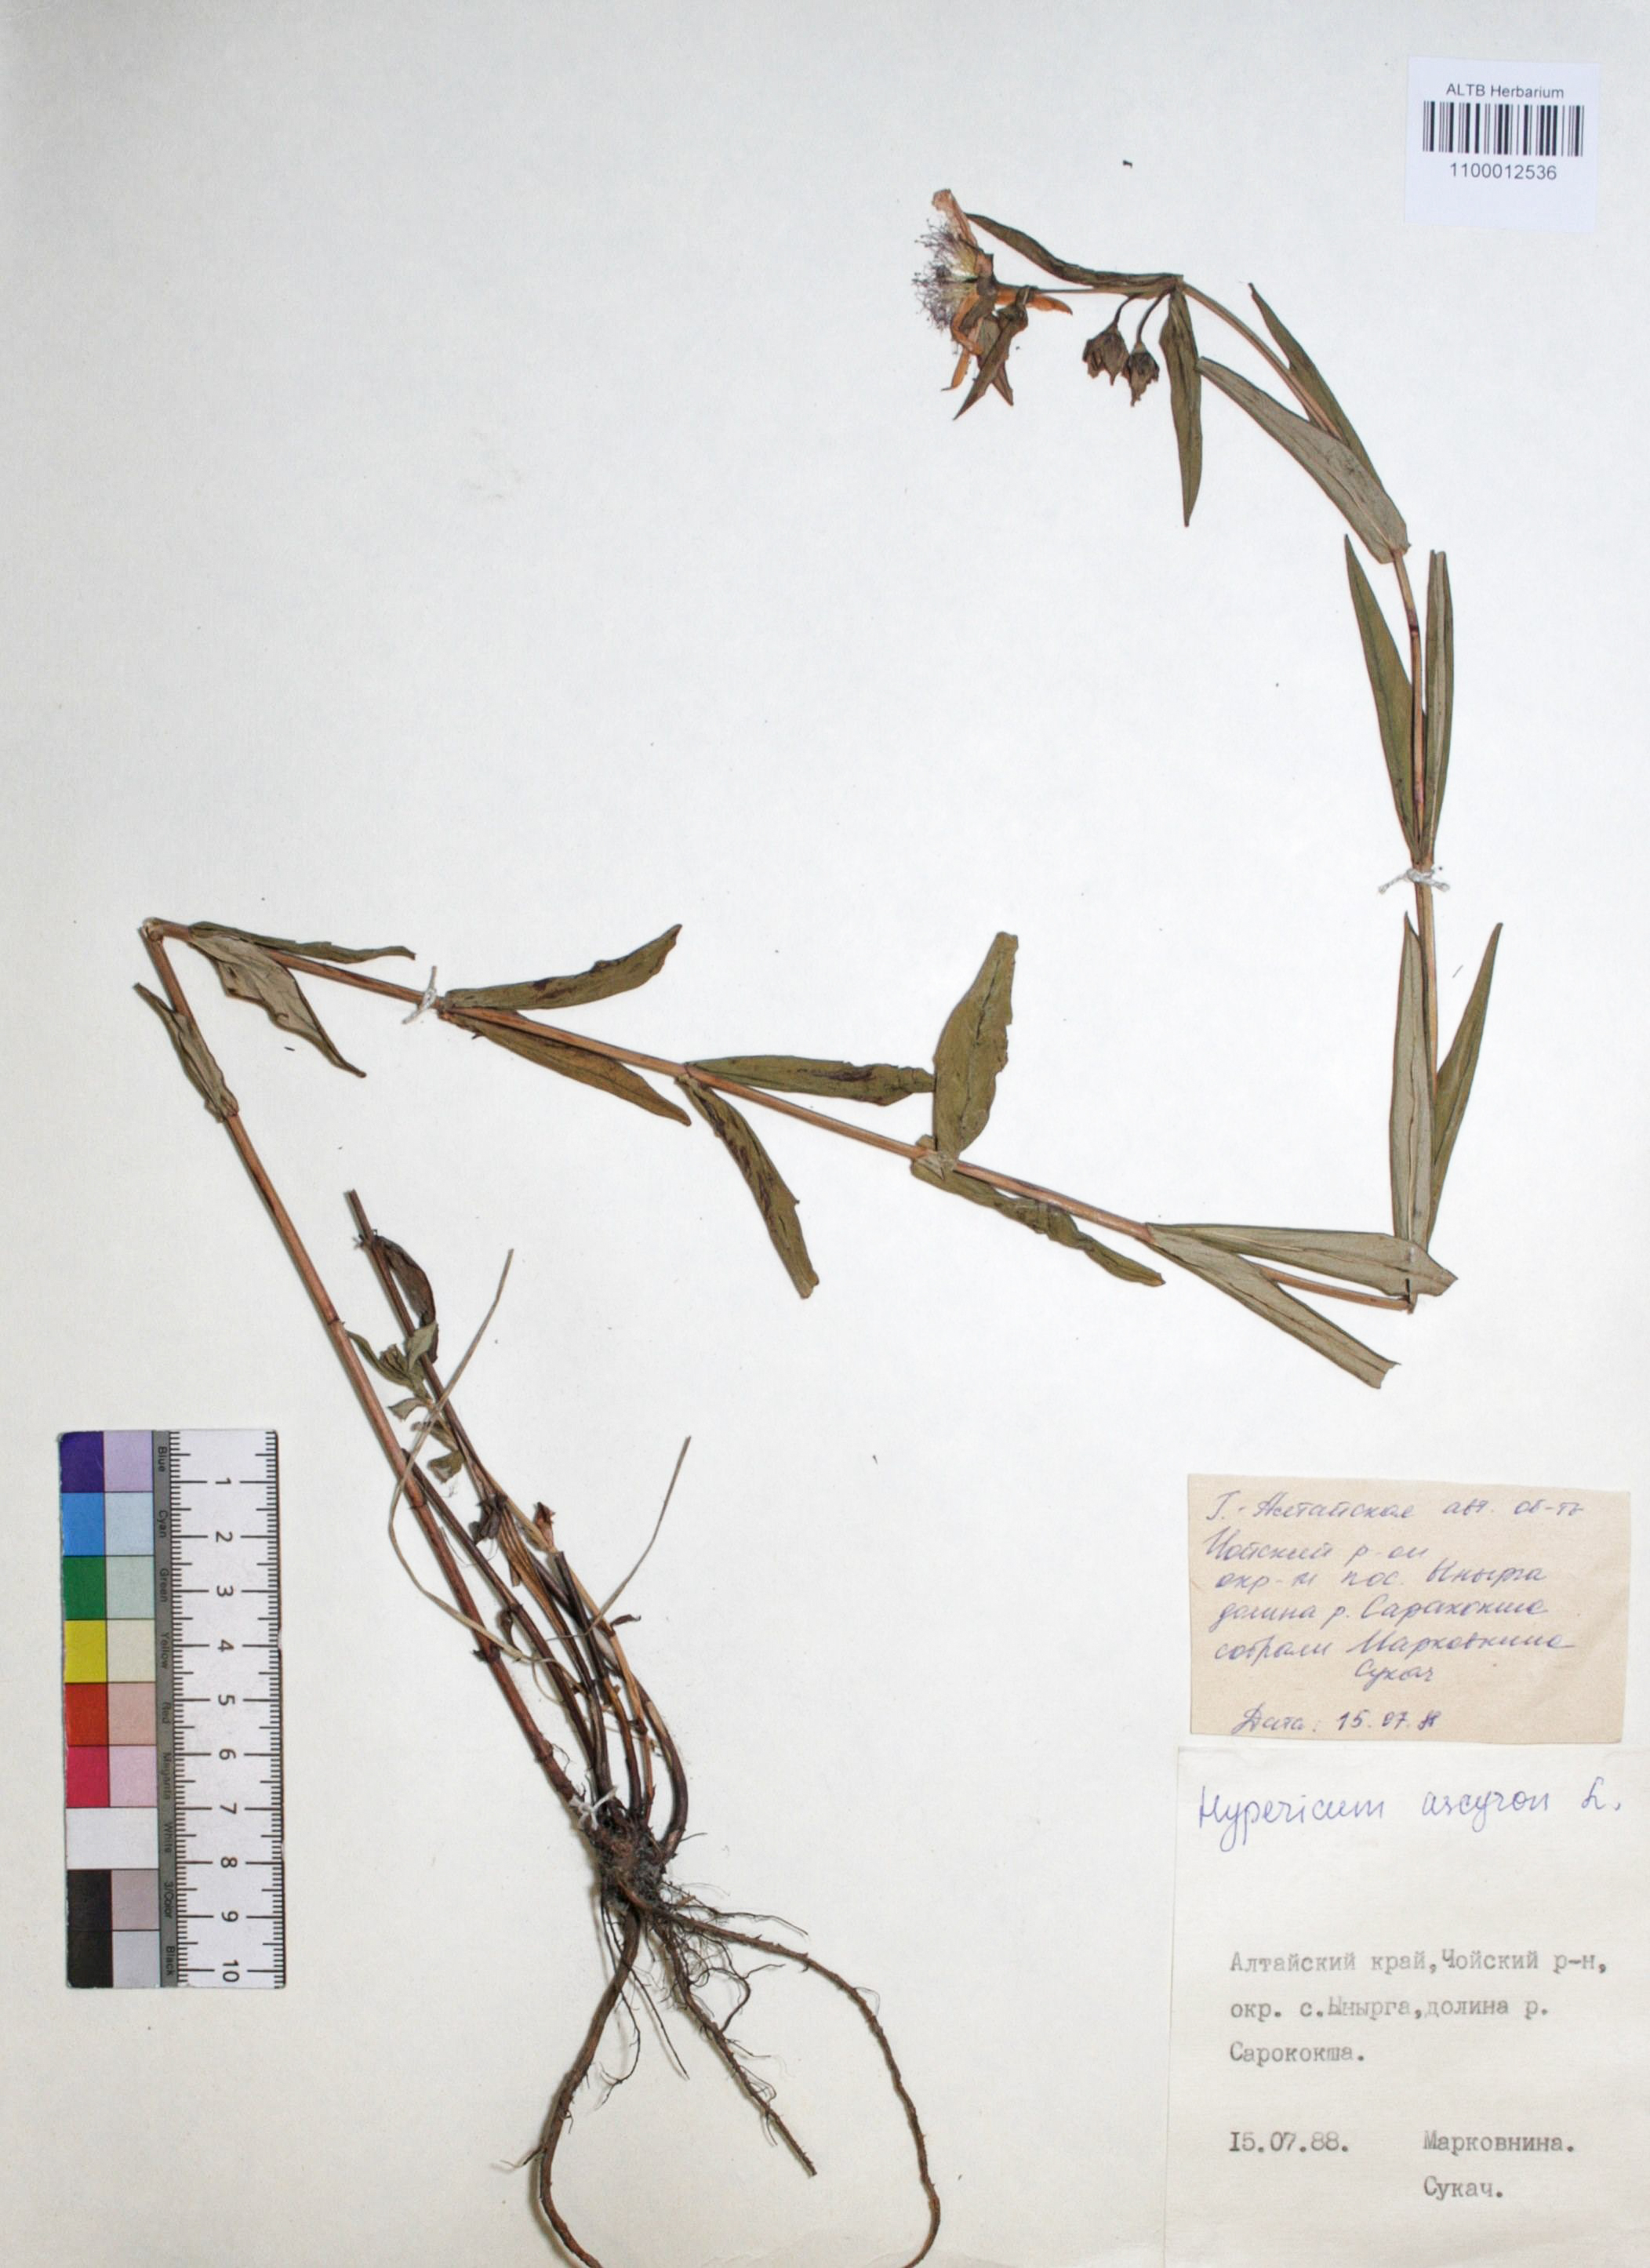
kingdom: Plantae
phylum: Tracheophyta
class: Magnoliopsida
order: Malpighiales
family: Hypericaceae
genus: Hypericum
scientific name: Hypericum ascyron
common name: Giant st. john's-wort
